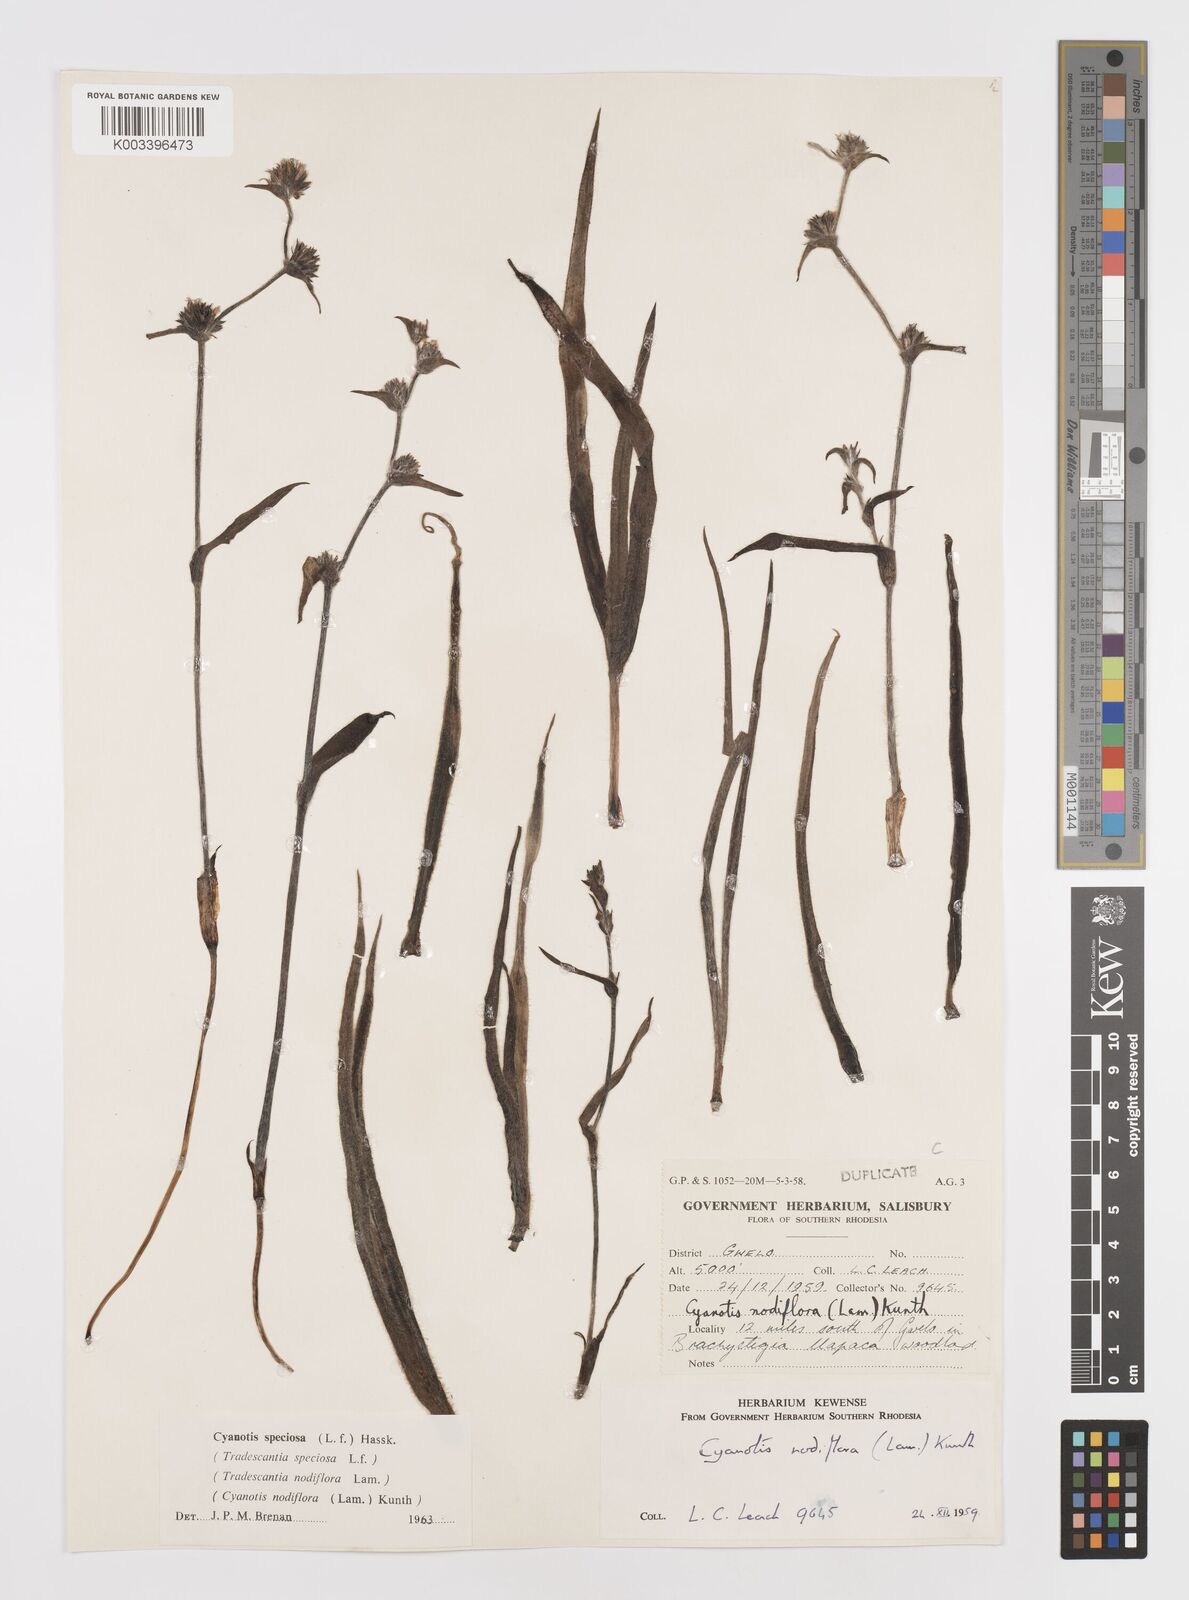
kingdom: Plantae
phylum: Tracheophyta
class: Liliopsida
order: Commelinales
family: Commelinaceae
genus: Cyanotis
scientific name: Cyanotis speciosa
